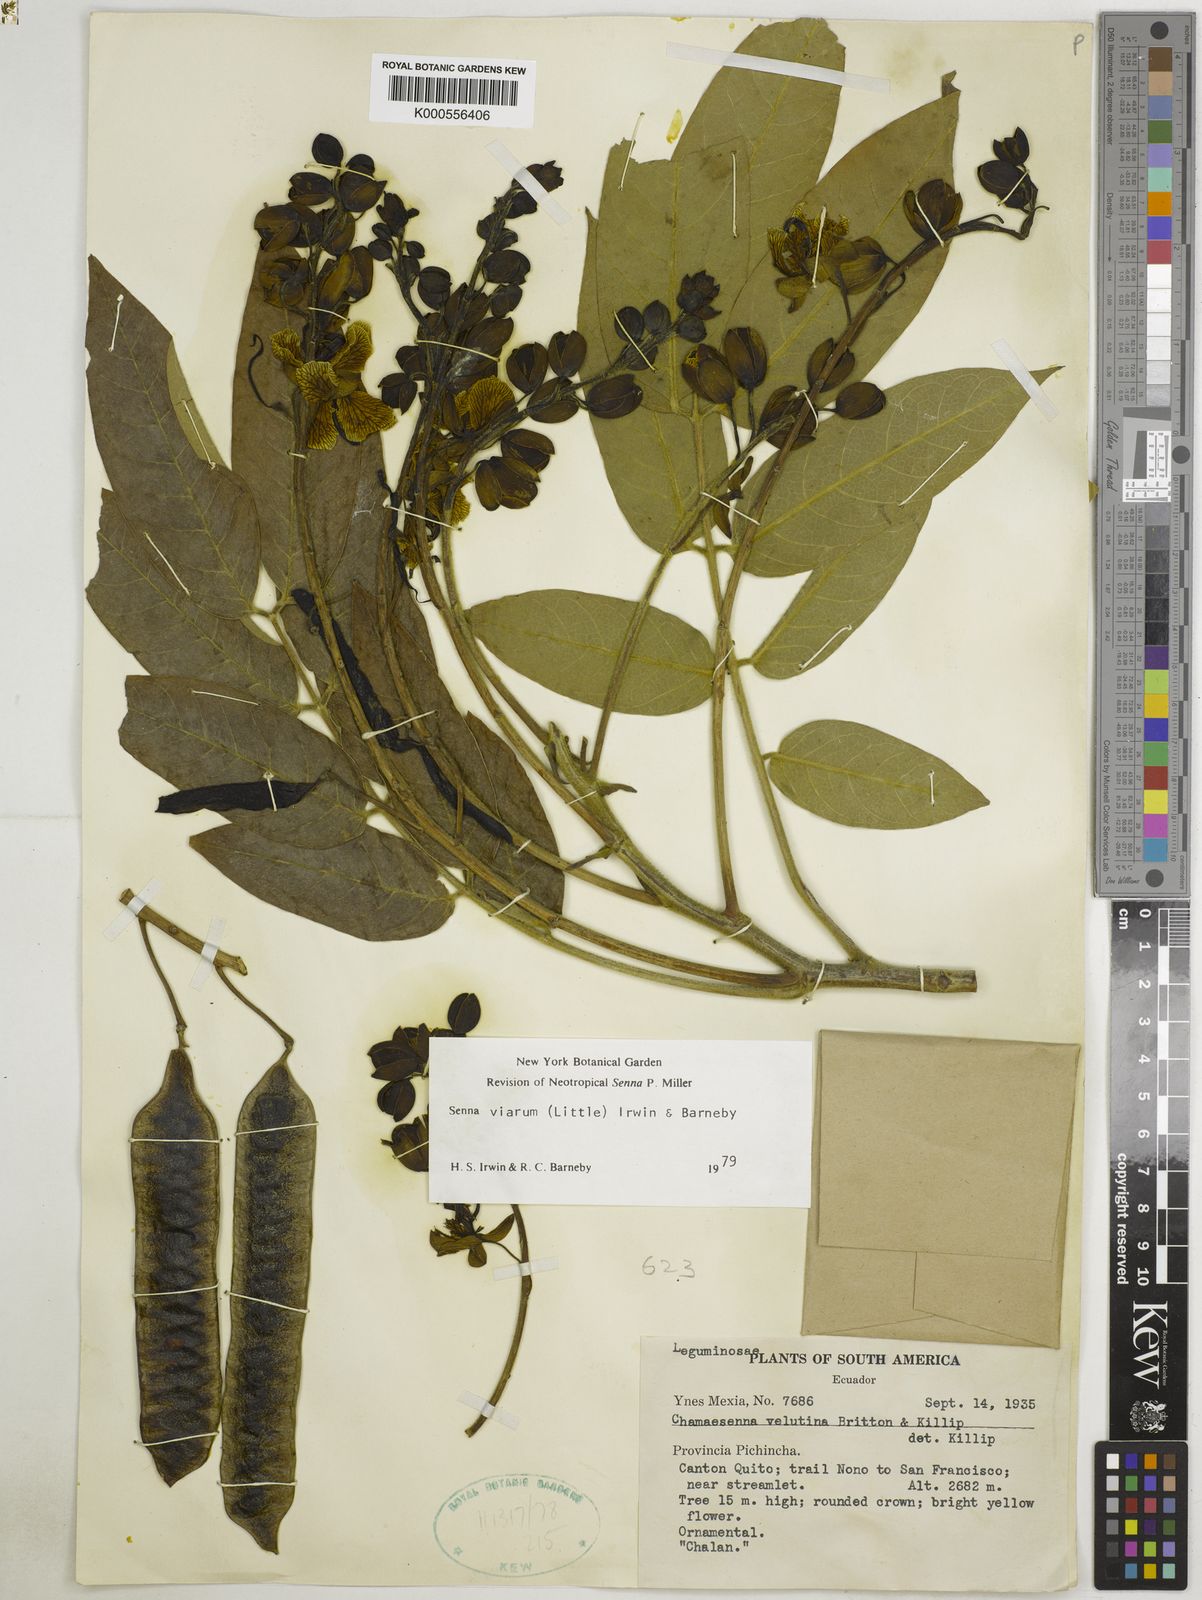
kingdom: Plantae
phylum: Tracheophyta
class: Magnoliopsida
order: Fabales
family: Fabaceae
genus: Senna
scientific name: Senna viarum
